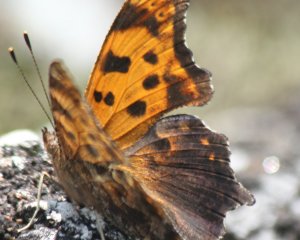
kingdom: Animalia
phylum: Arthropoda
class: Insecta
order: Lepidoptera
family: Nymphalidae
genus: Polygonia
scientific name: Polygonia comma
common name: Eastern Comma
